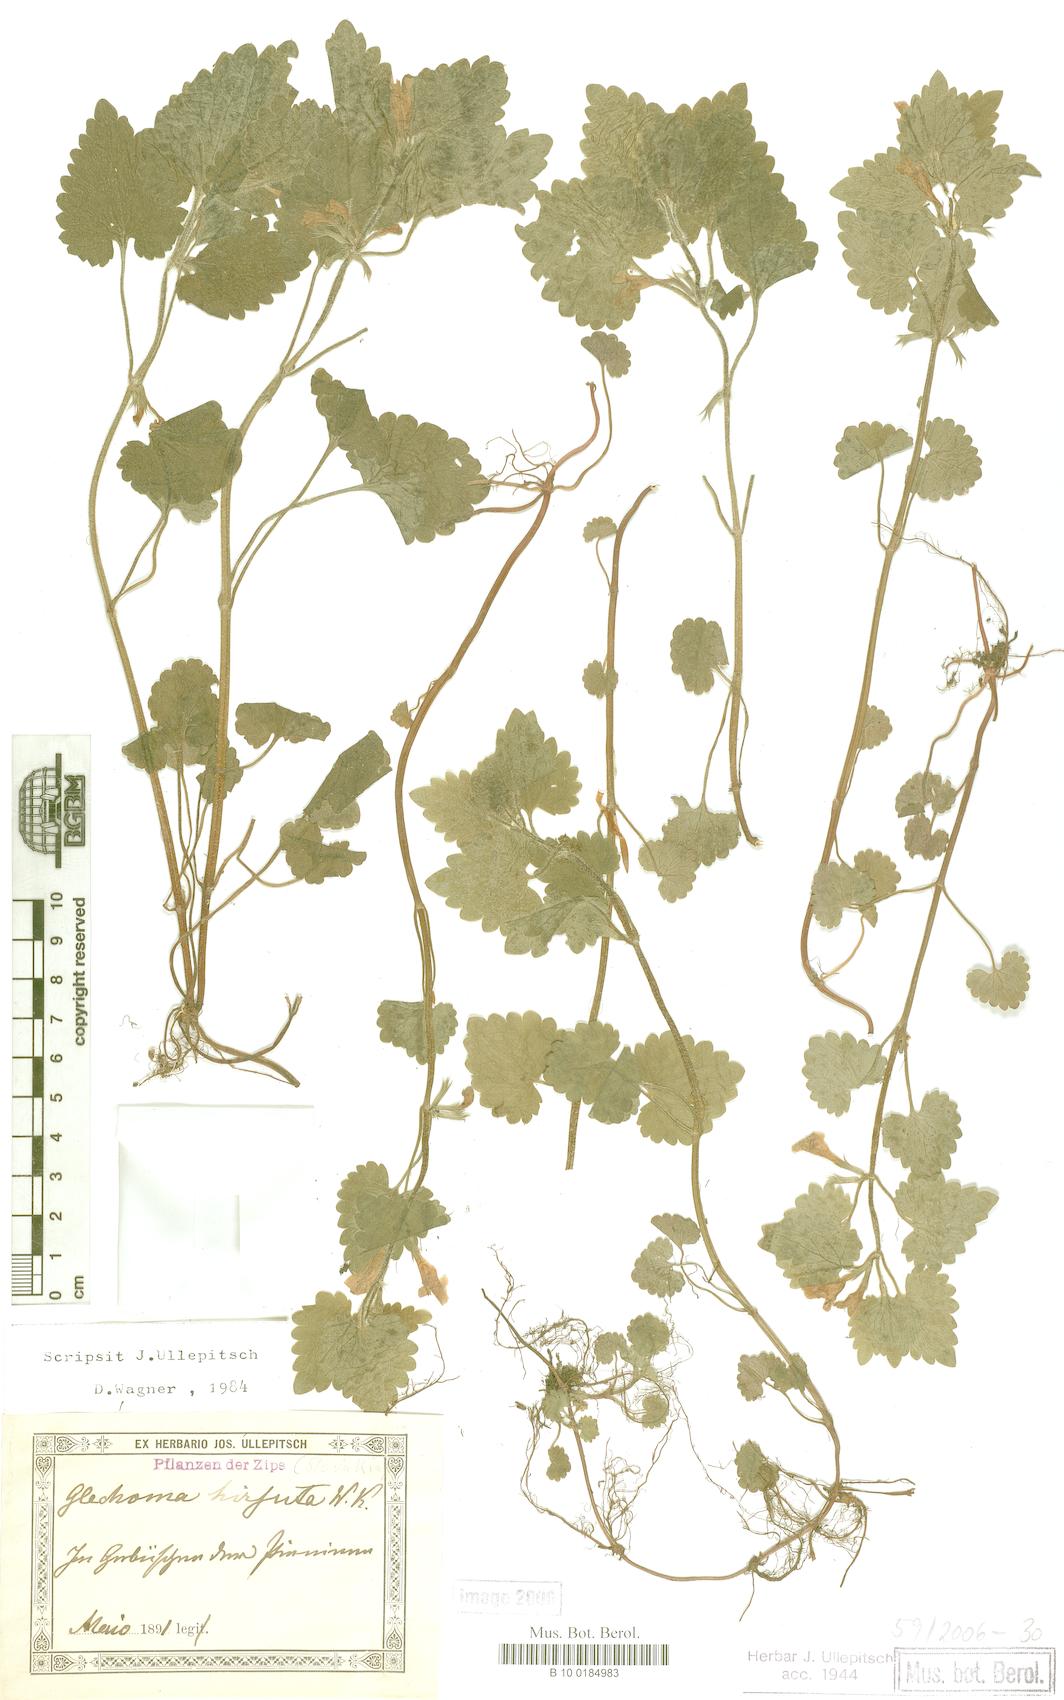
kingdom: Plantae
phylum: Tracheophyta
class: Magnoliopsida
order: Lamiales
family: Lamiaceae
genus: Glechoma
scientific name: Glechoma hirsuta
